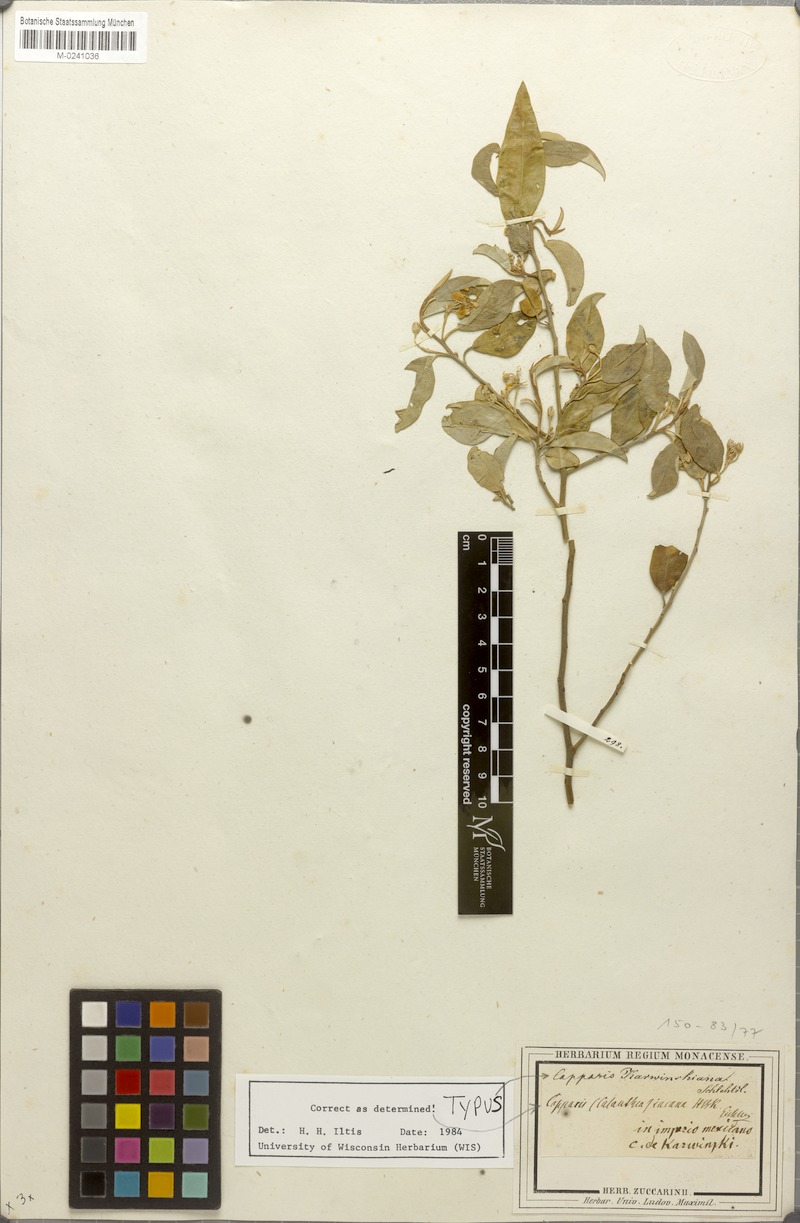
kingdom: Plantae
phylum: Tracheophyta
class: Magnoliopsida
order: Brassicales
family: Capparaceae
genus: Quadrella
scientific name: Quadrella incana
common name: Hoary caper
